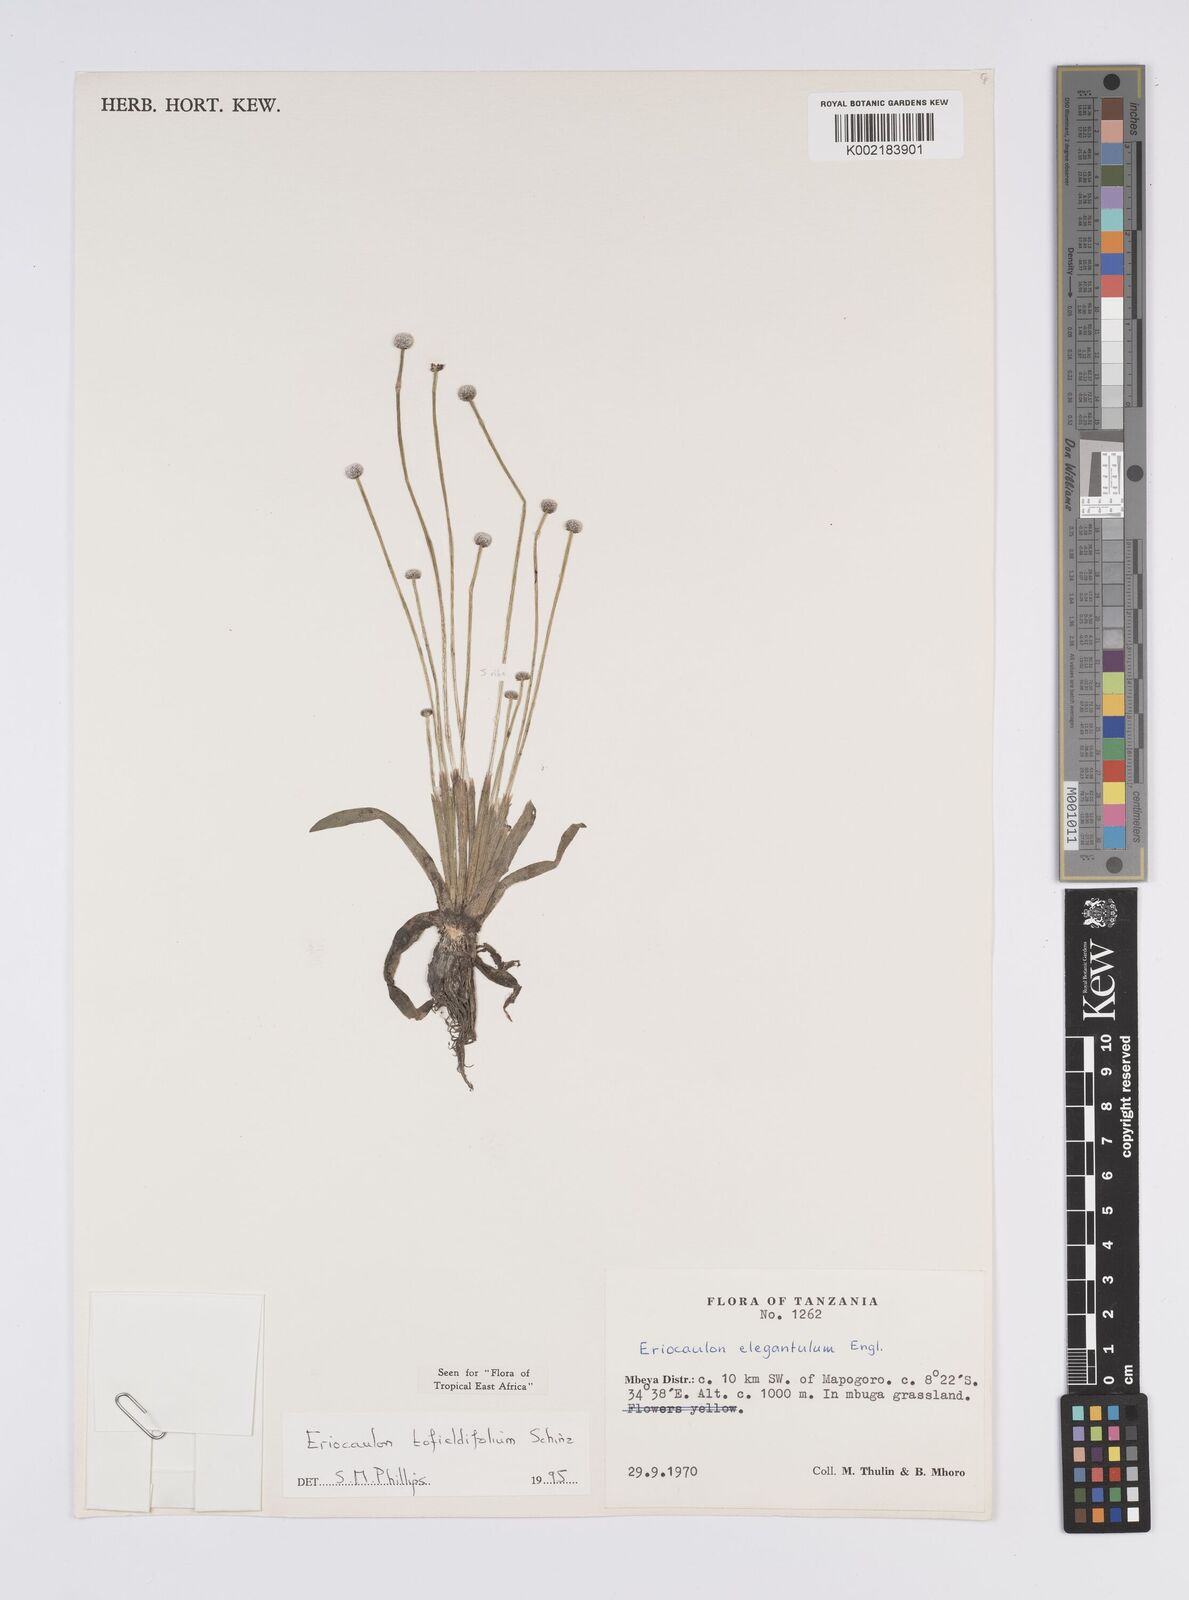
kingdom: Plantae
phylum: Tracheophyta
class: Liliopsida
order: Poales
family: Eriocaulaceae
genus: Eriocaulon
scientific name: Eriocaulon transvaalicum
